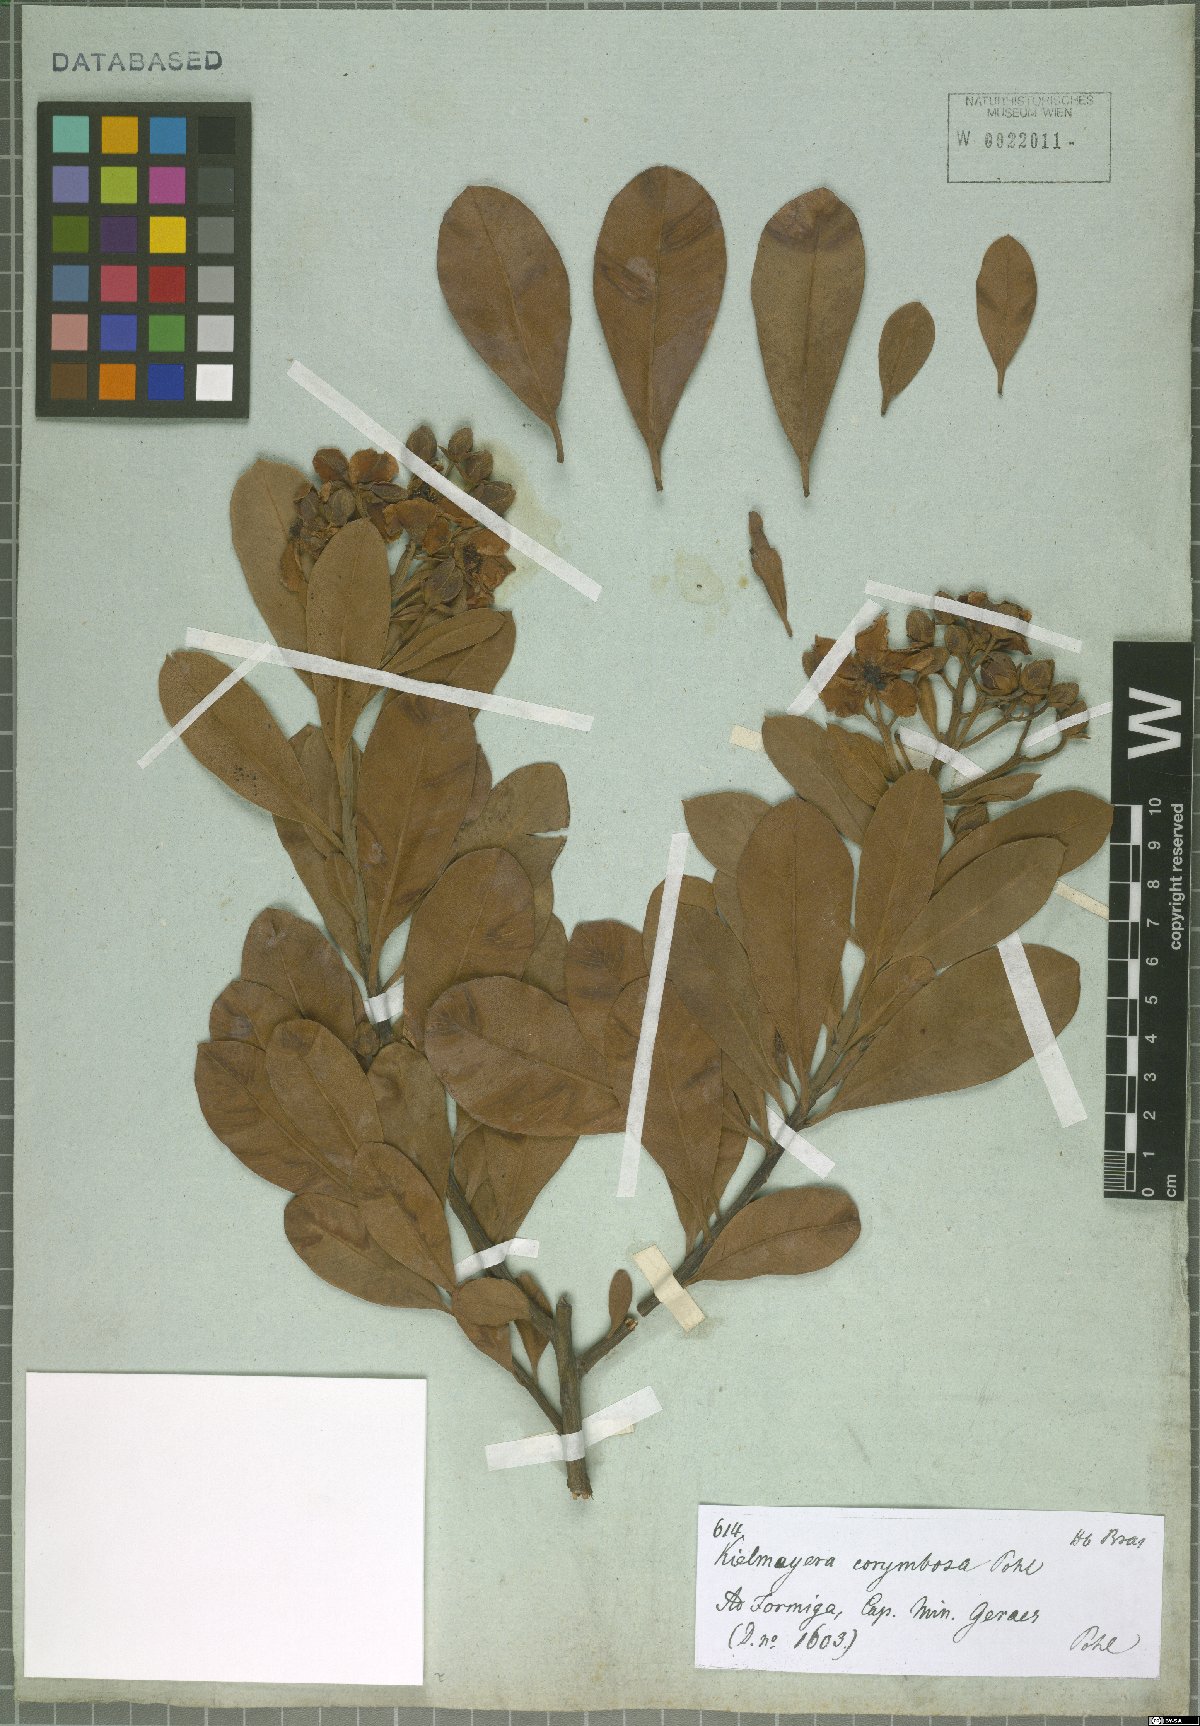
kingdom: Plantae
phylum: Tracheophyta
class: Magnoliopsida
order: Malpighiales
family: Calophyllaceae
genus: Kielmeyera
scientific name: Kielmeyera corymbosa
